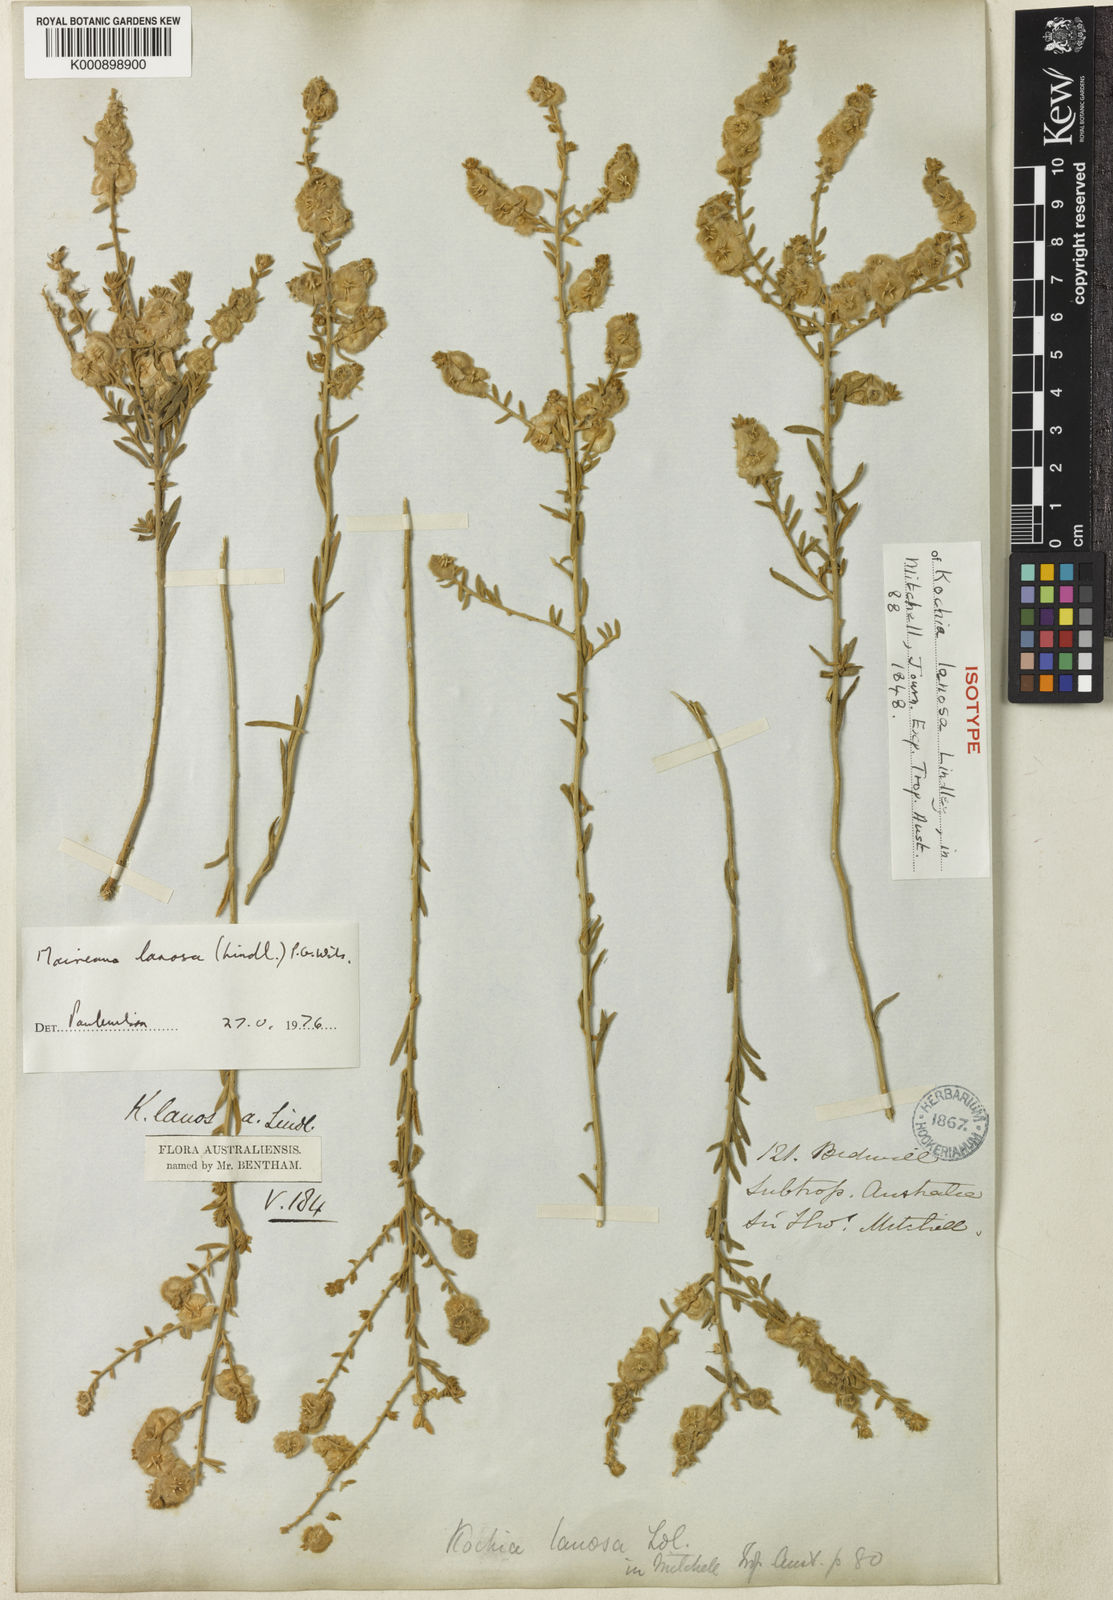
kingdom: Plantae
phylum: Tracheophyta
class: Magnoliopsida
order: Caryophyllales
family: Amaranthaceae
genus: Maireana
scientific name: Maireana lanosa
